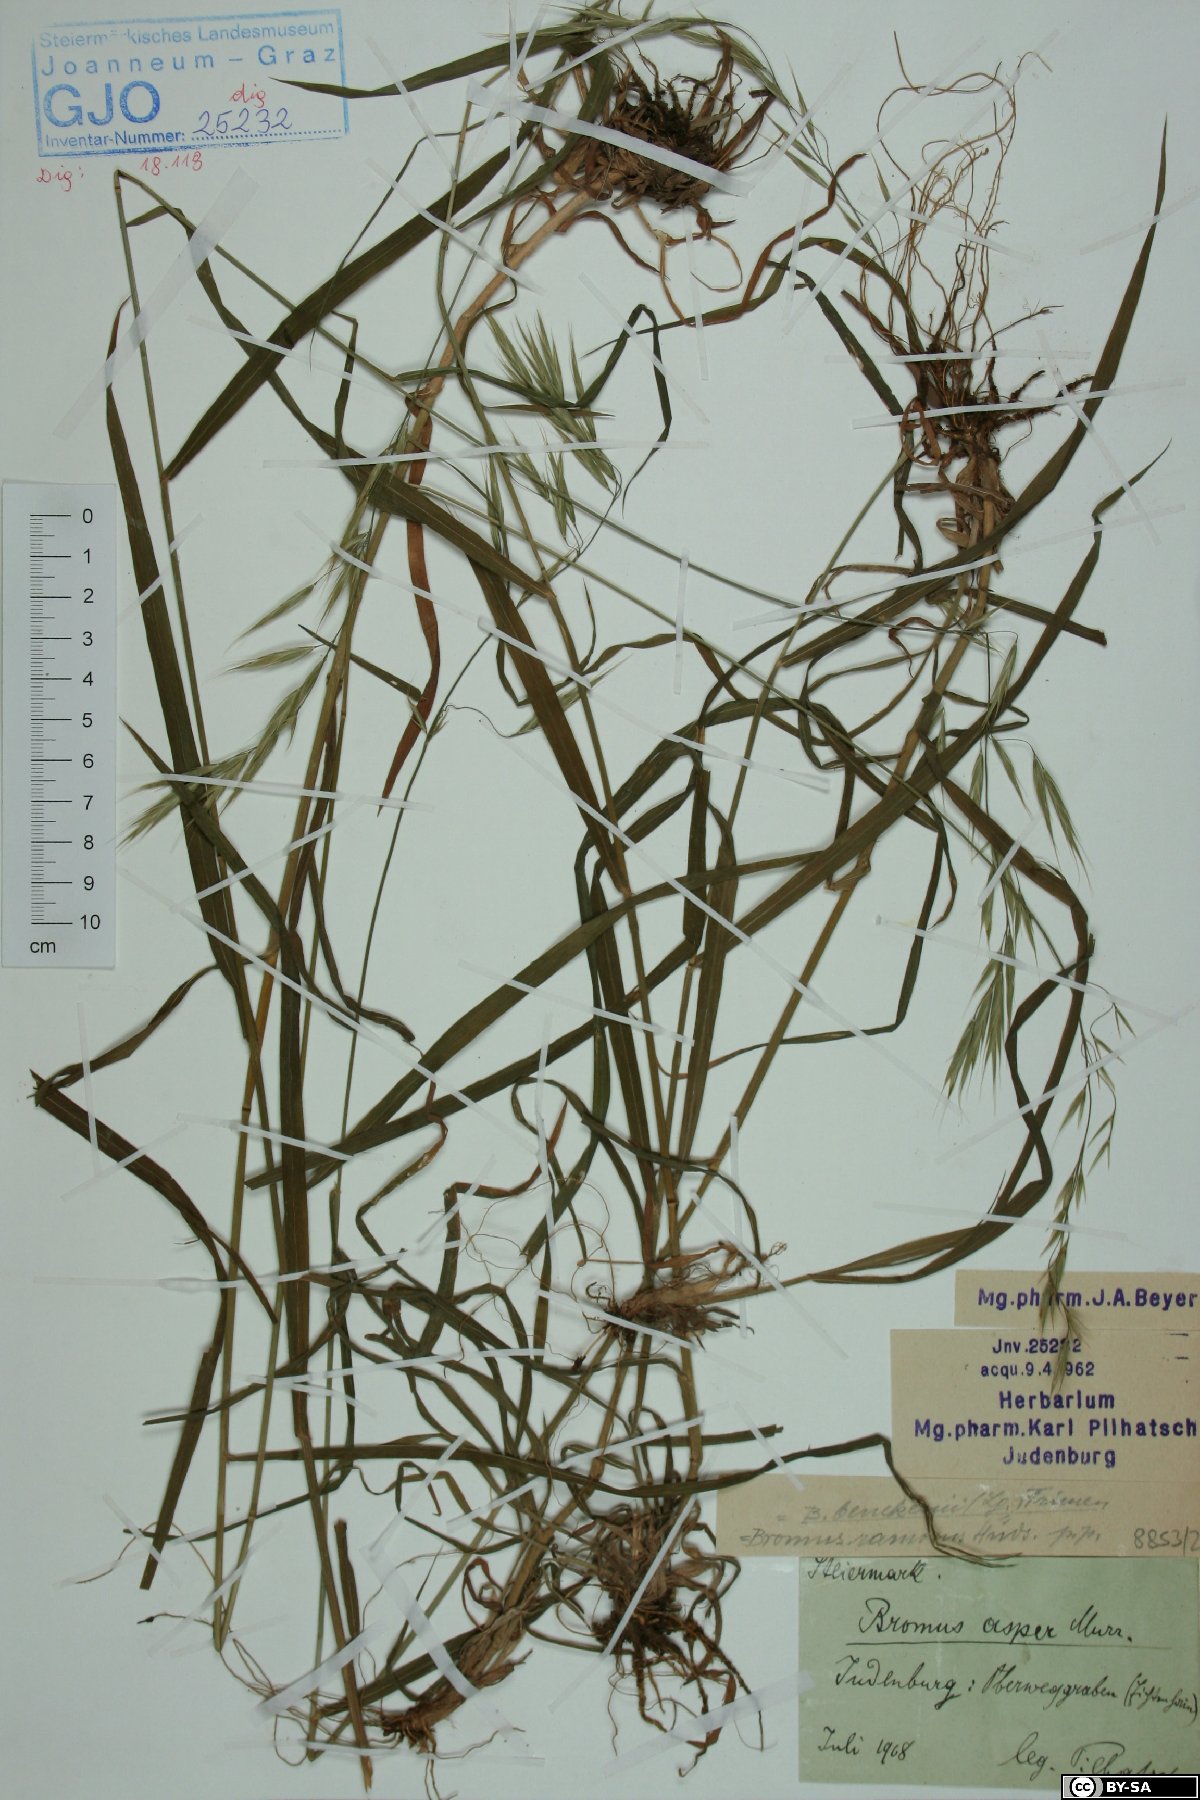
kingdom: Plantae
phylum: Tracheophyta
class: Liliopsida
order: Poales
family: Poaceae
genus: Bromus
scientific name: Bromus ramosus
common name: Hairy brome
